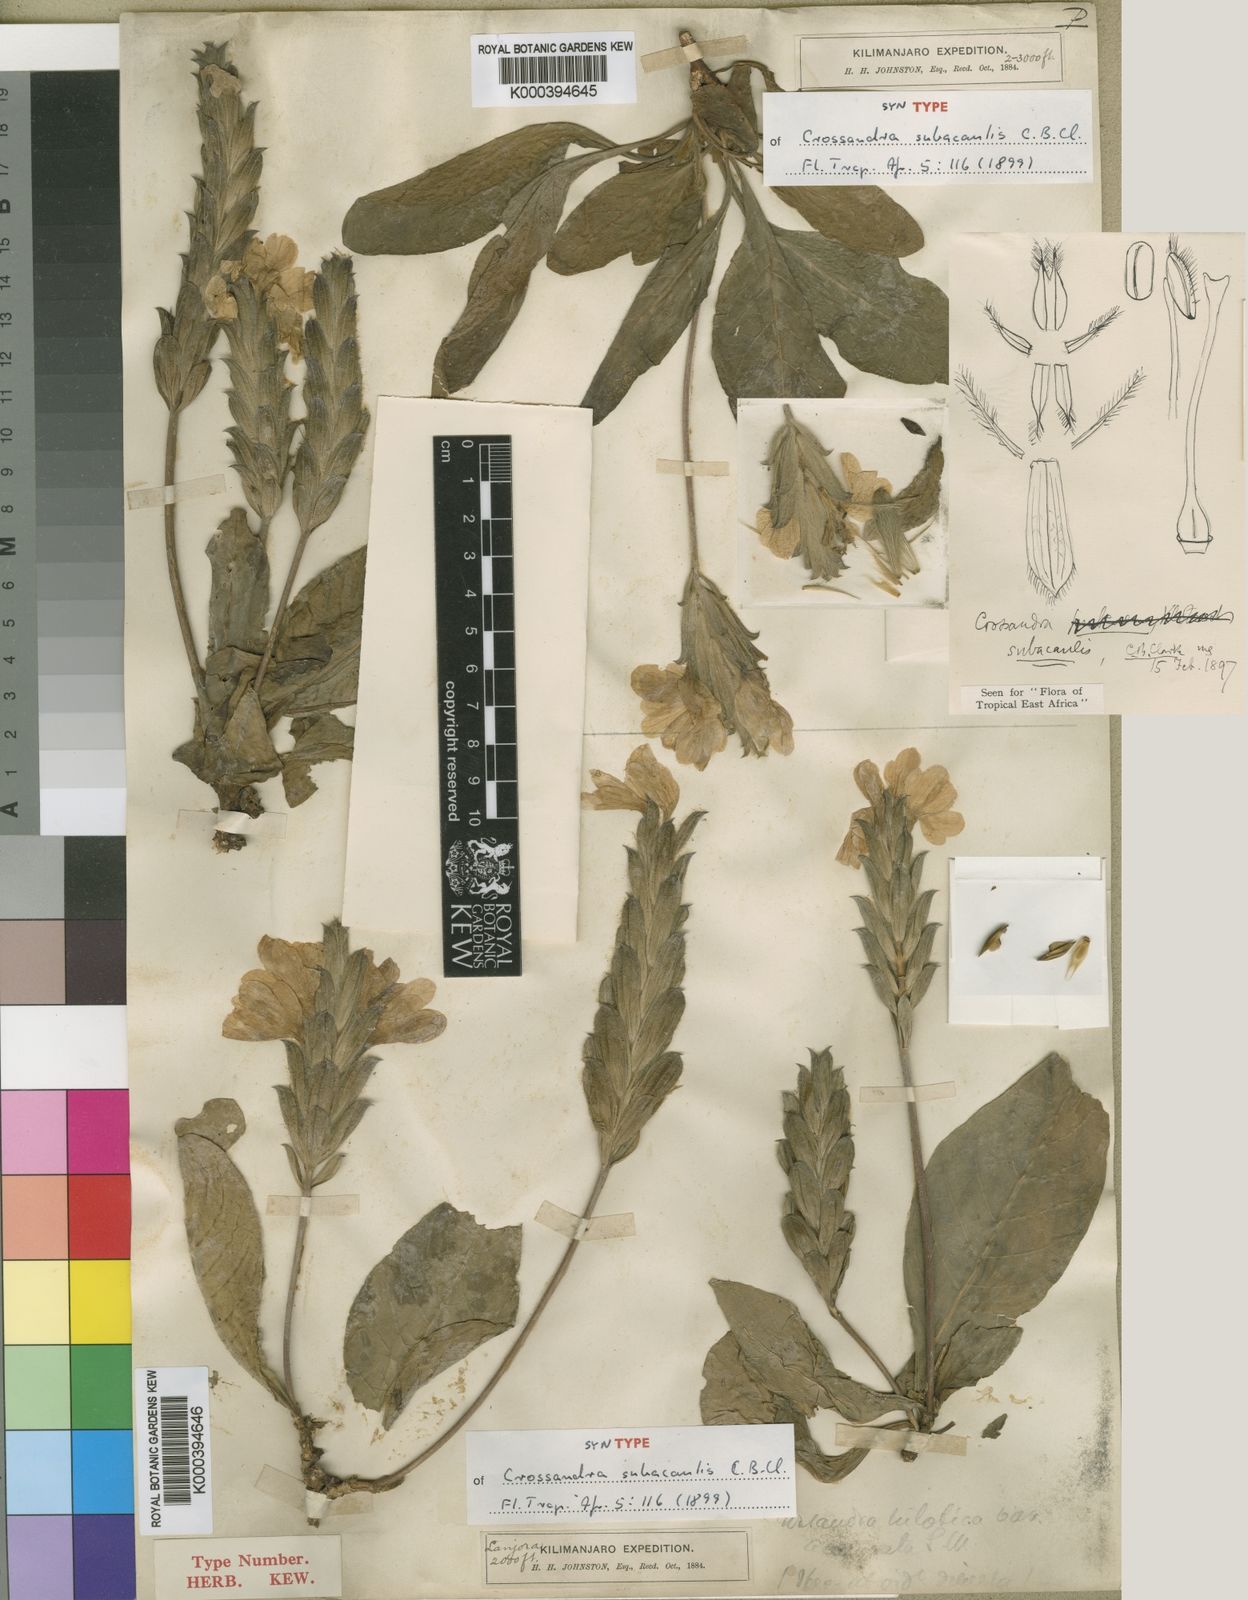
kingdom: Plantae
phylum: Tracheophyta
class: Magnoliopsida
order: Lamiales
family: Acanthaceae
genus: Crossandra
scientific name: Crossandra subacaulis
